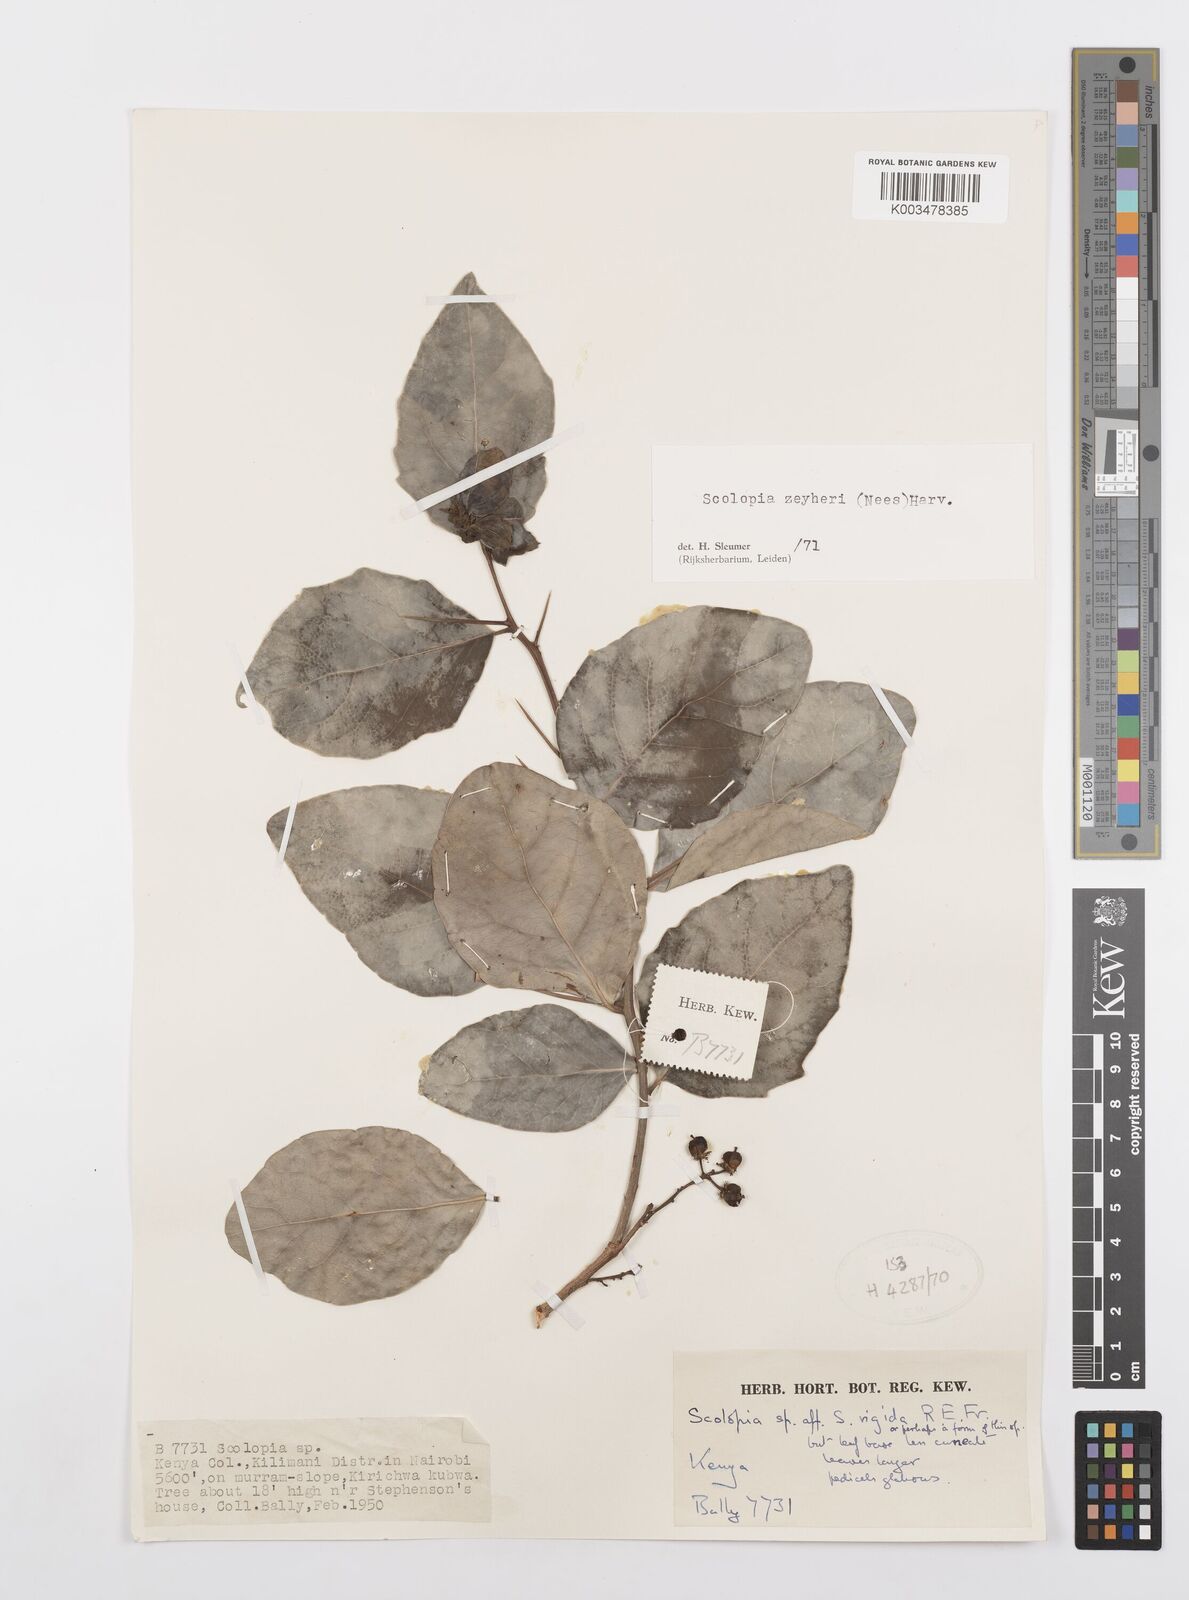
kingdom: Plantae
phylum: Tracheophyta
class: Magnoliopsida
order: Malpighiales
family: Salicaceae
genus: Scolopia
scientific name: Scolopia zeyheri
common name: Thorn pear
